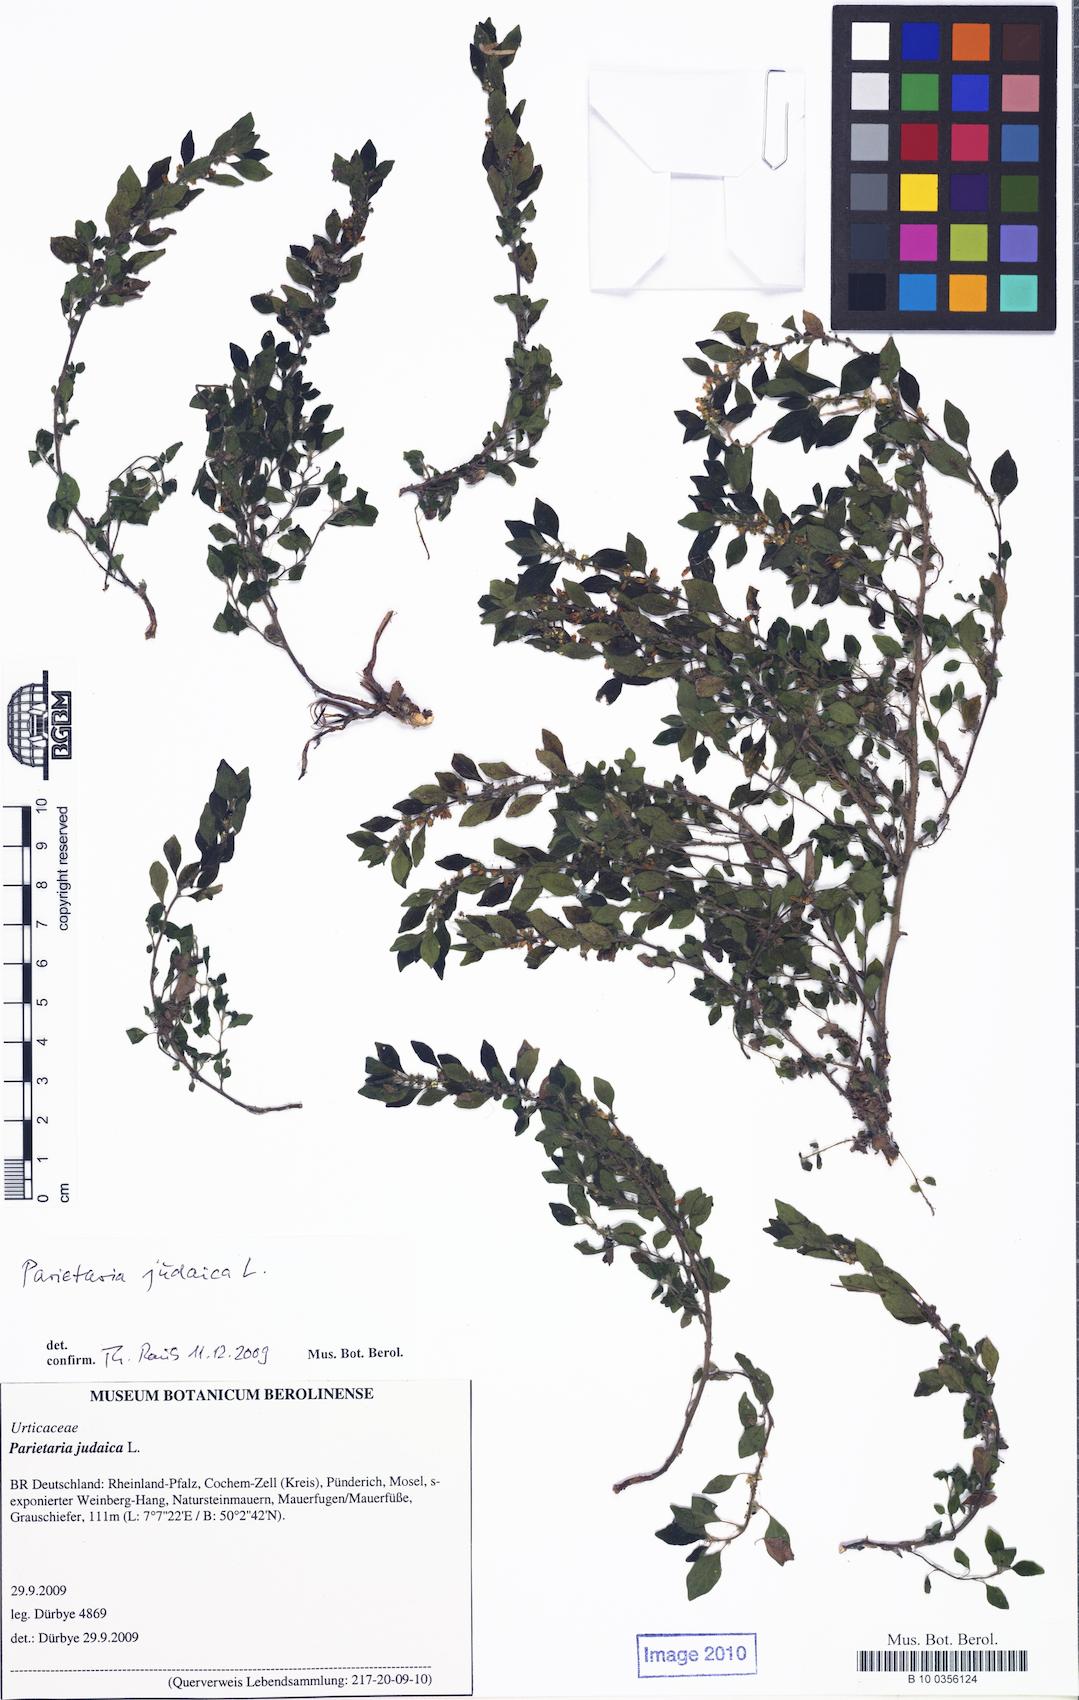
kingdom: Plantae
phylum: Tracheophyta
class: Magnoliopsida
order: Rosales
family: Urticaceae
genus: Parietaria
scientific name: Parietaria judaica
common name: Pellitory-of-the-wall
